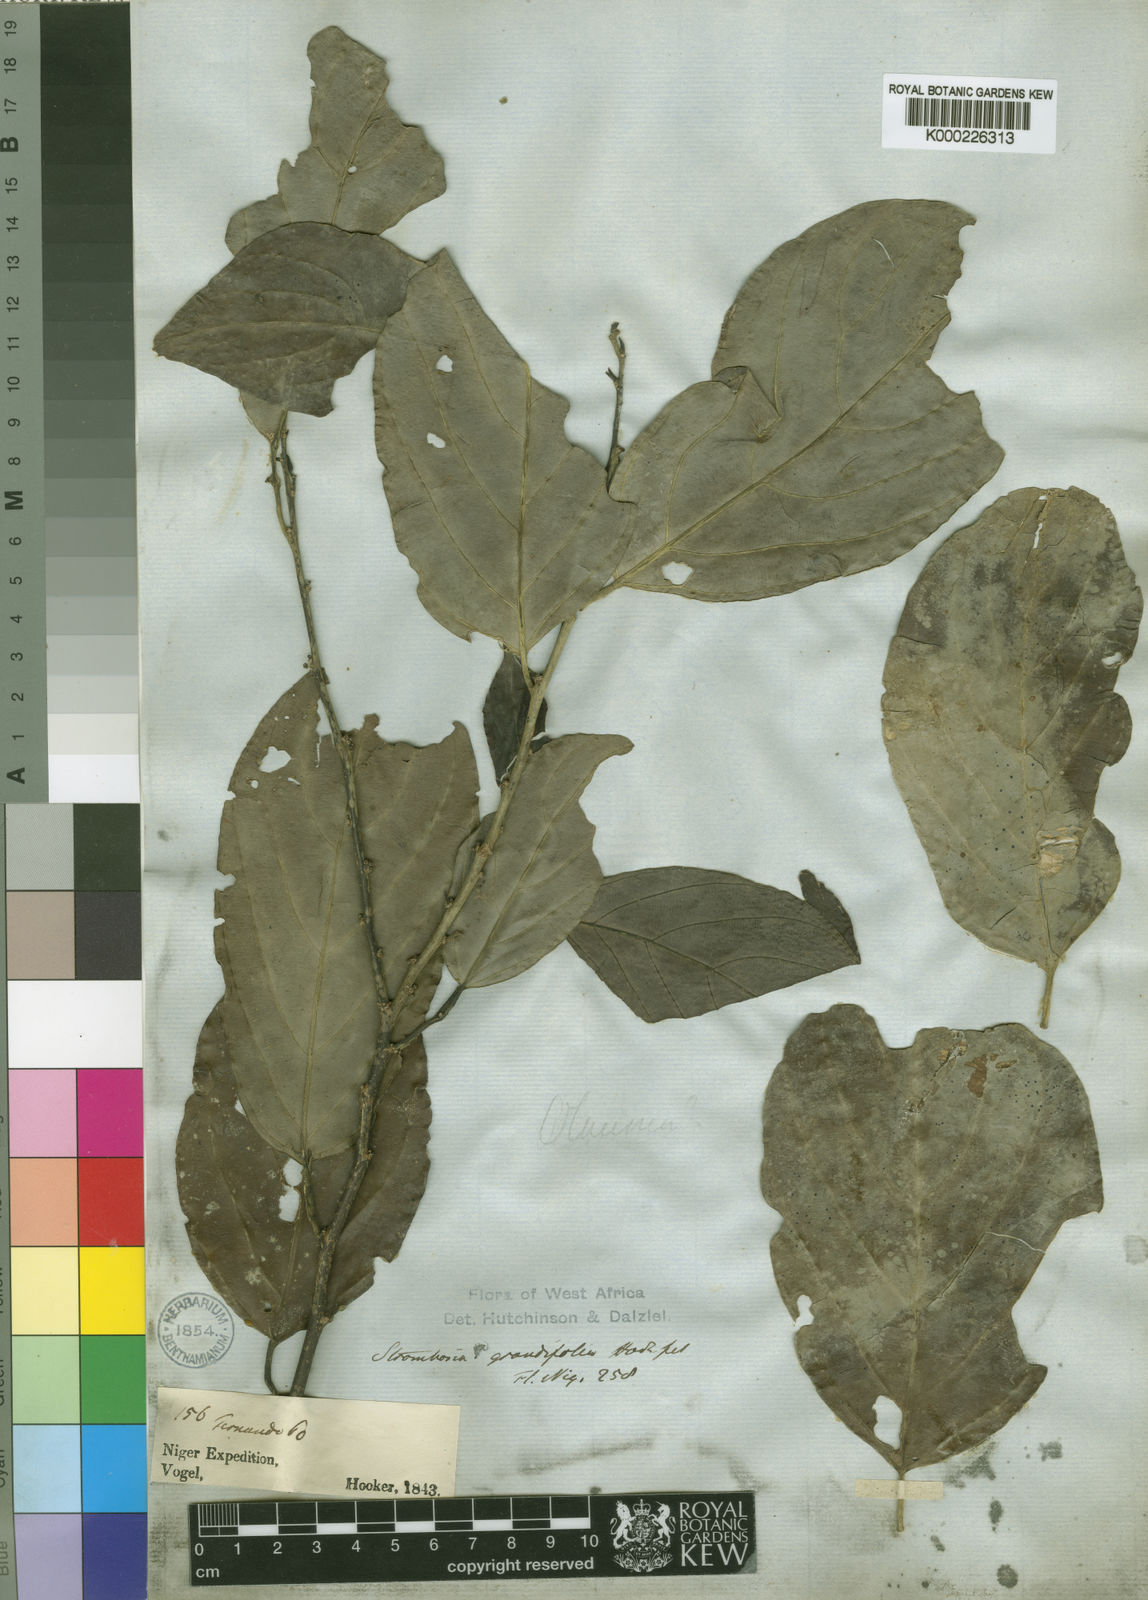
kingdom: Plantae
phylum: Tracheophyta
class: Magnoliopsida
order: Santalales
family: Strombosiaceae
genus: Strombosia
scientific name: Strombosia
